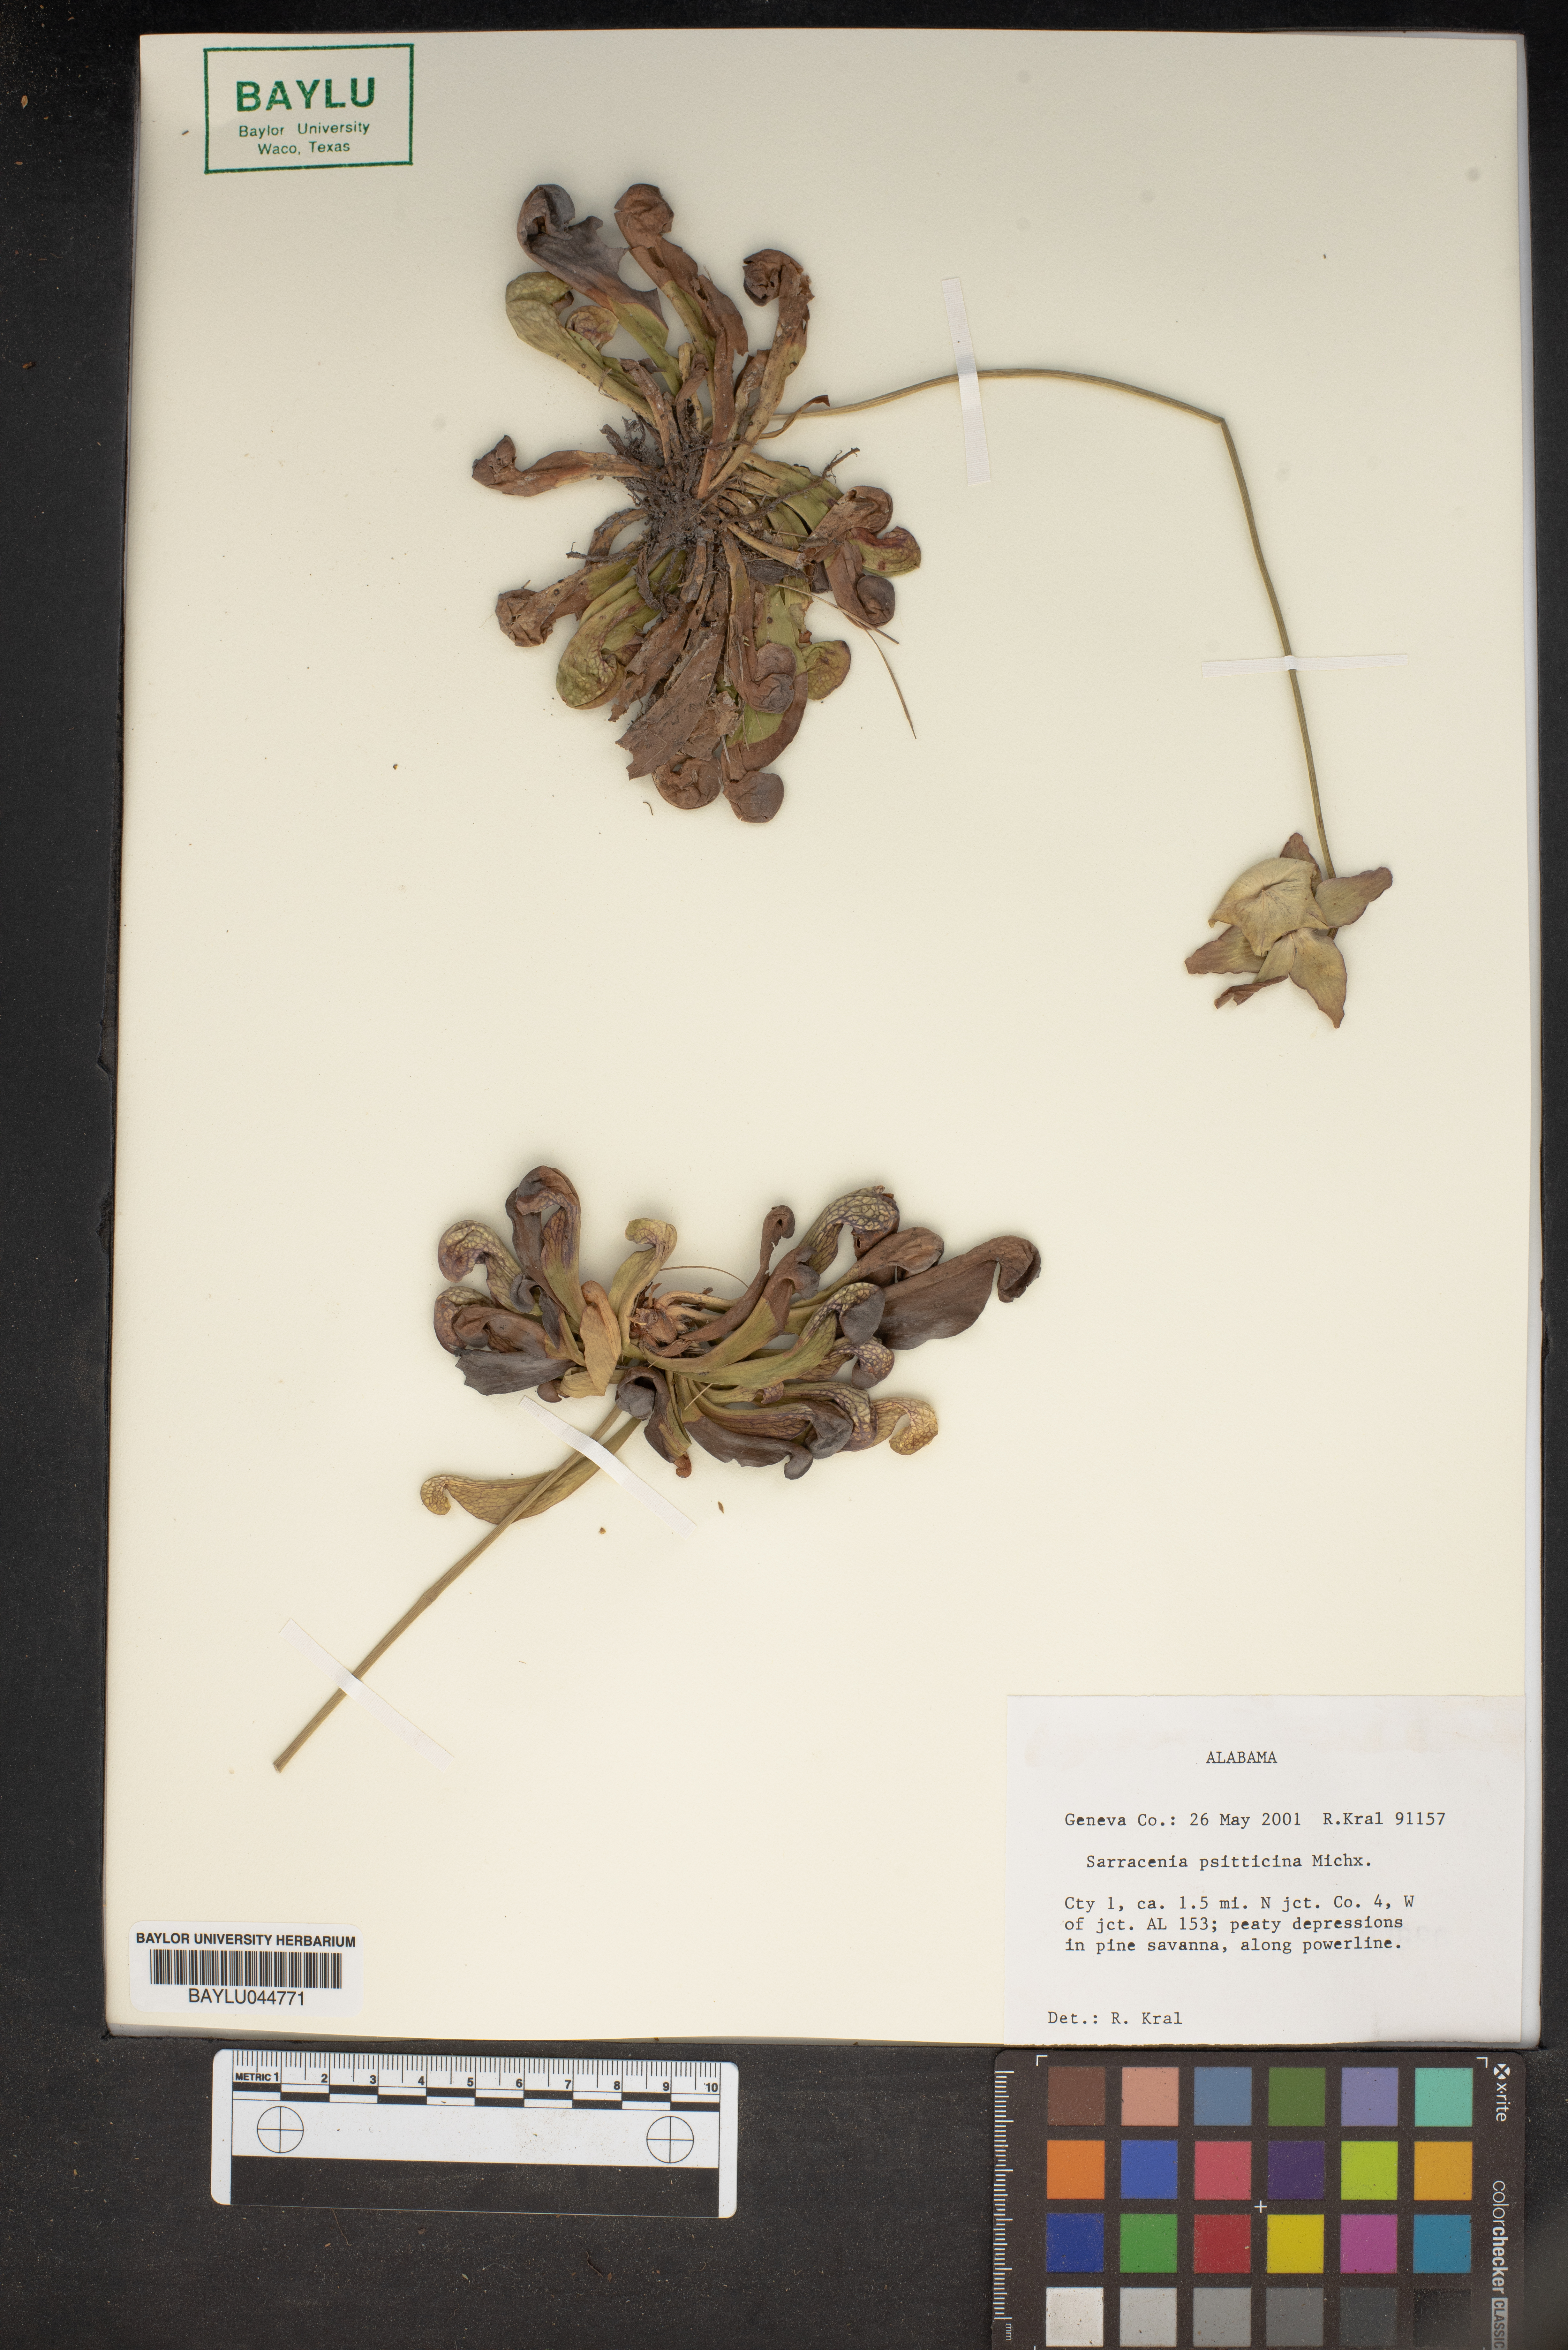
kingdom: Plantae
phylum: Tracheophyta
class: Magnoliopsida
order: Ericales
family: Sarraceniaceae
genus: Sarracenia
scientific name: Sarracenia psittacina
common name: Parrot pitcherplant
